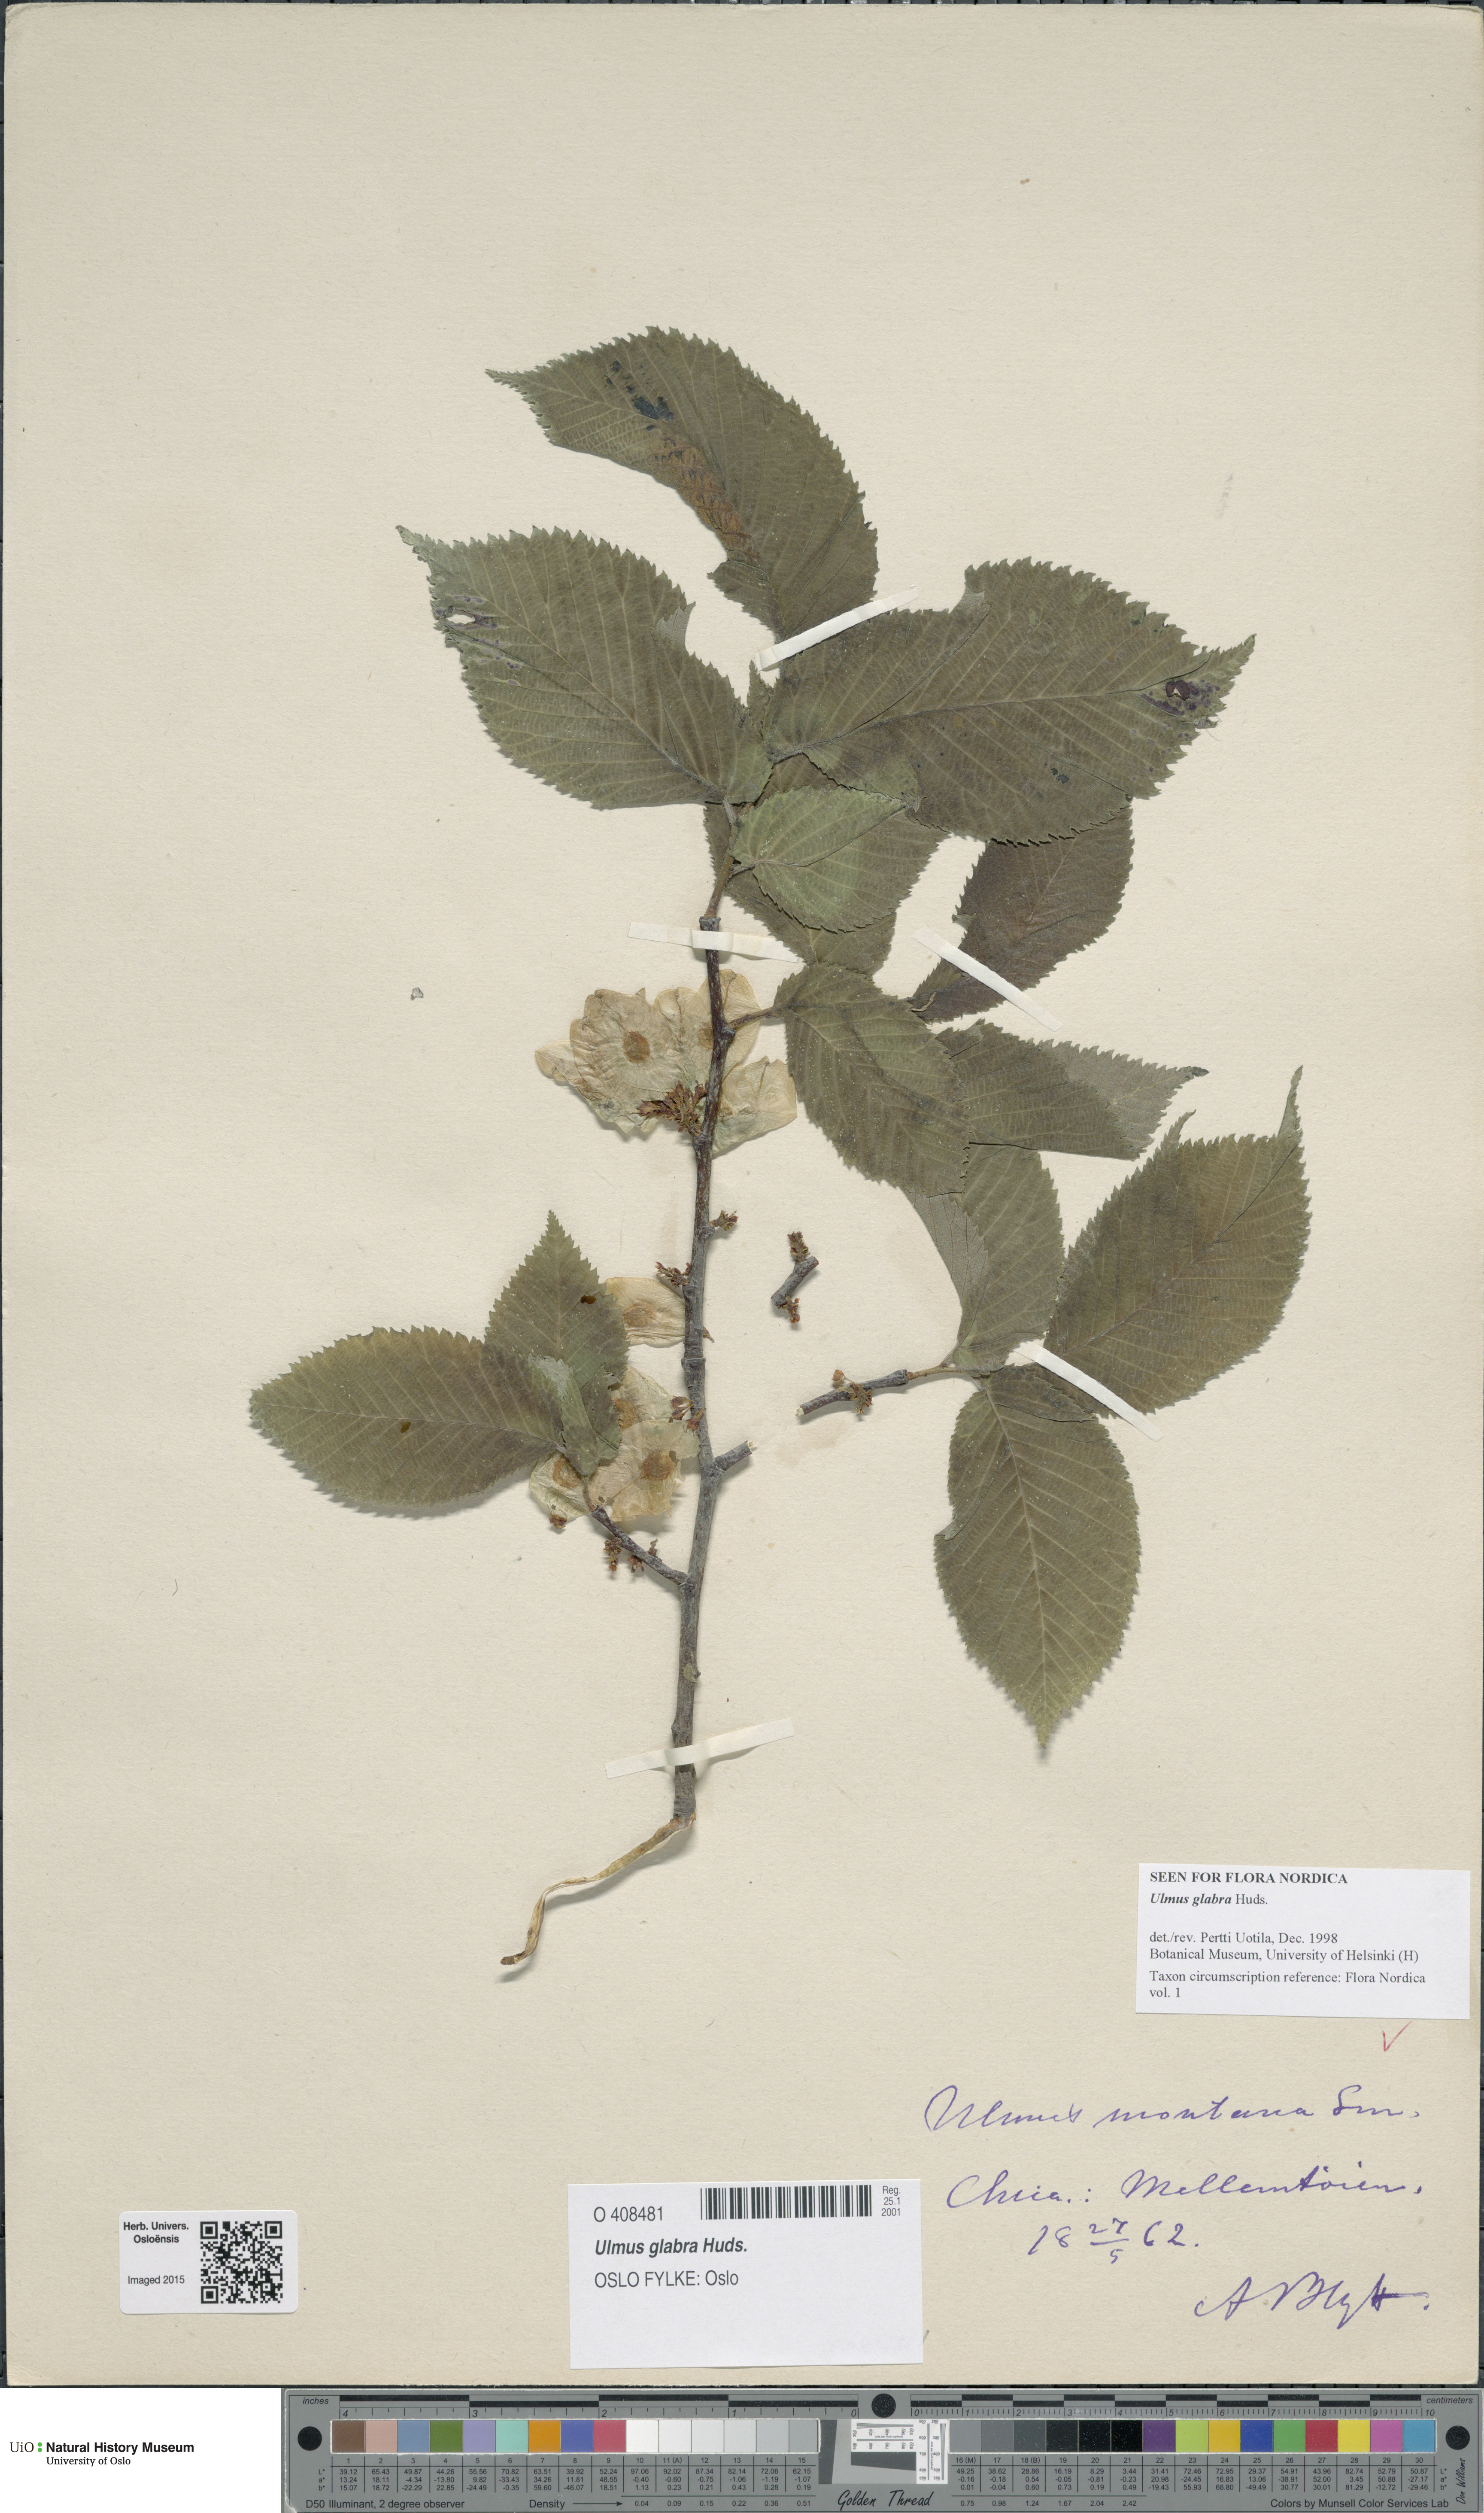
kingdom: Plantae
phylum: Tracheophyta
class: Magnoliopsida
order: Rosales
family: Ulmaceae
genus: Ulmus
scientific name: Ulmus glabra
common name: Wych elm
